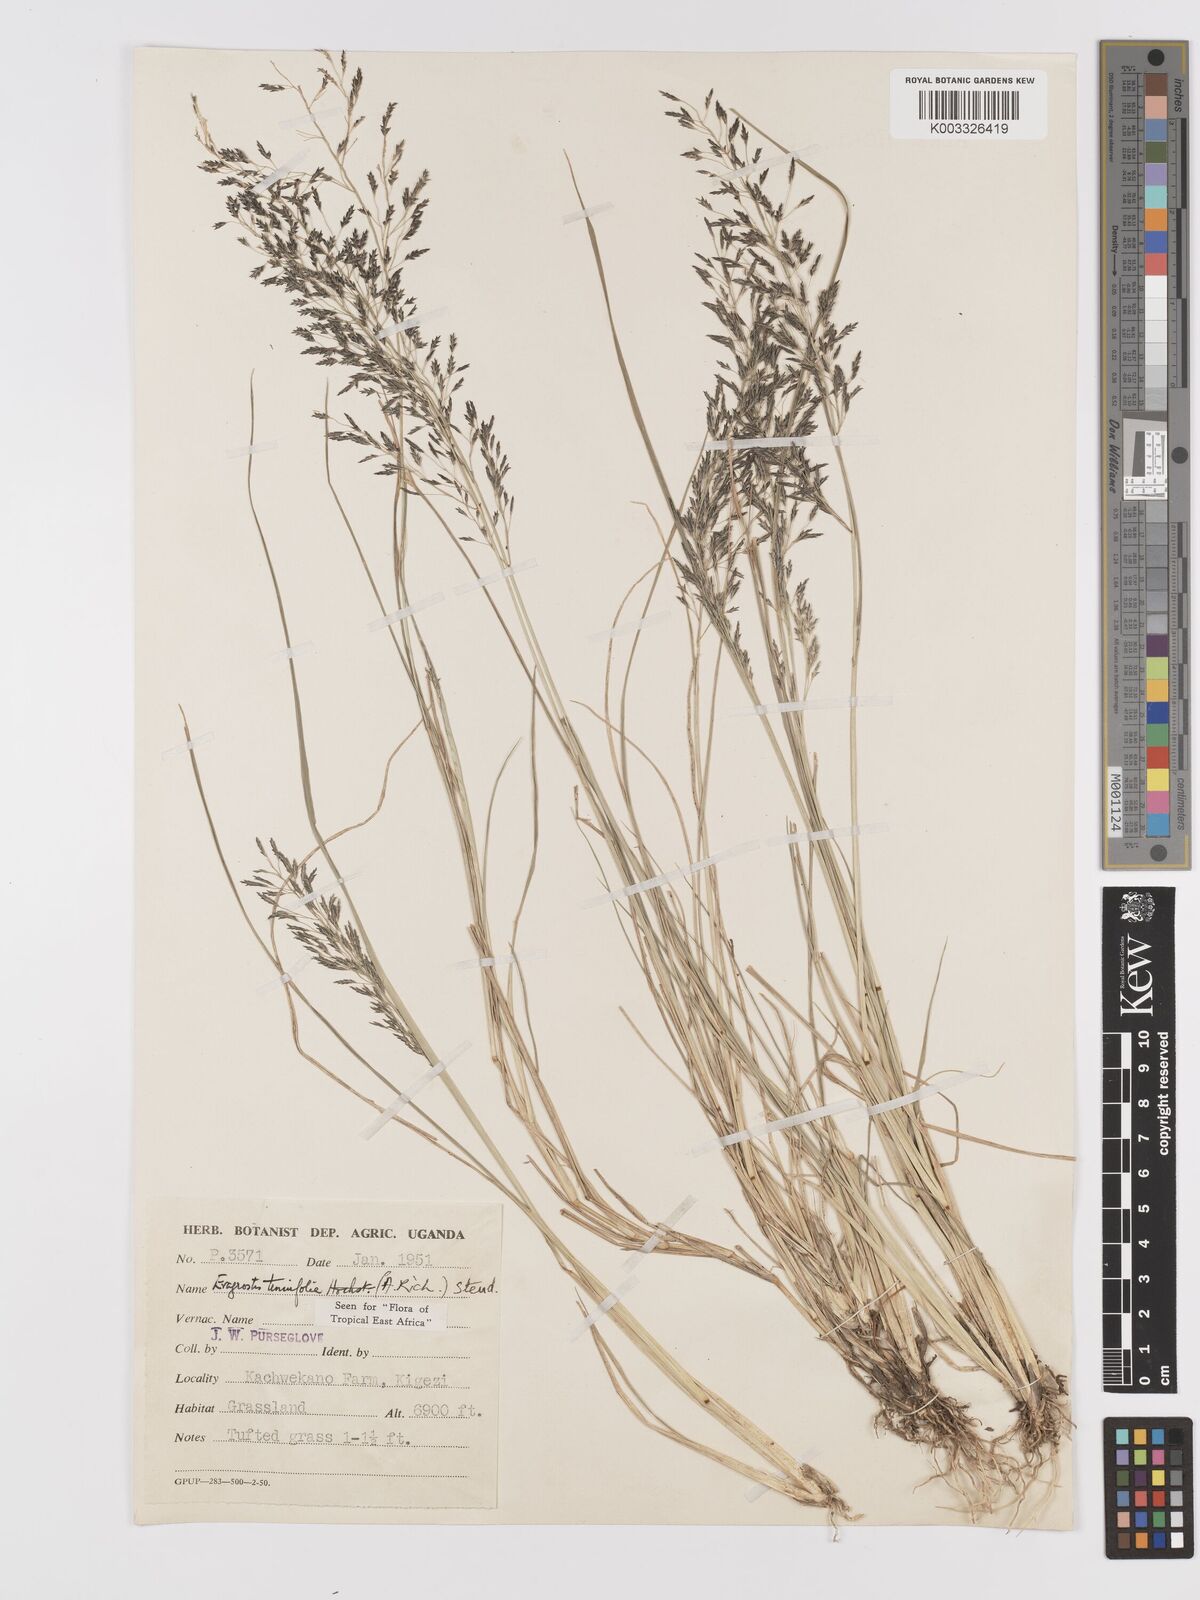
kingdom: Plantae
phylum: Tracheophyta
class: Liliopsida
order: Poales
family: Poaceae
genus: Eragrostis
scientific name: Eragrostis tenuifolia
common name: Elastic grass
